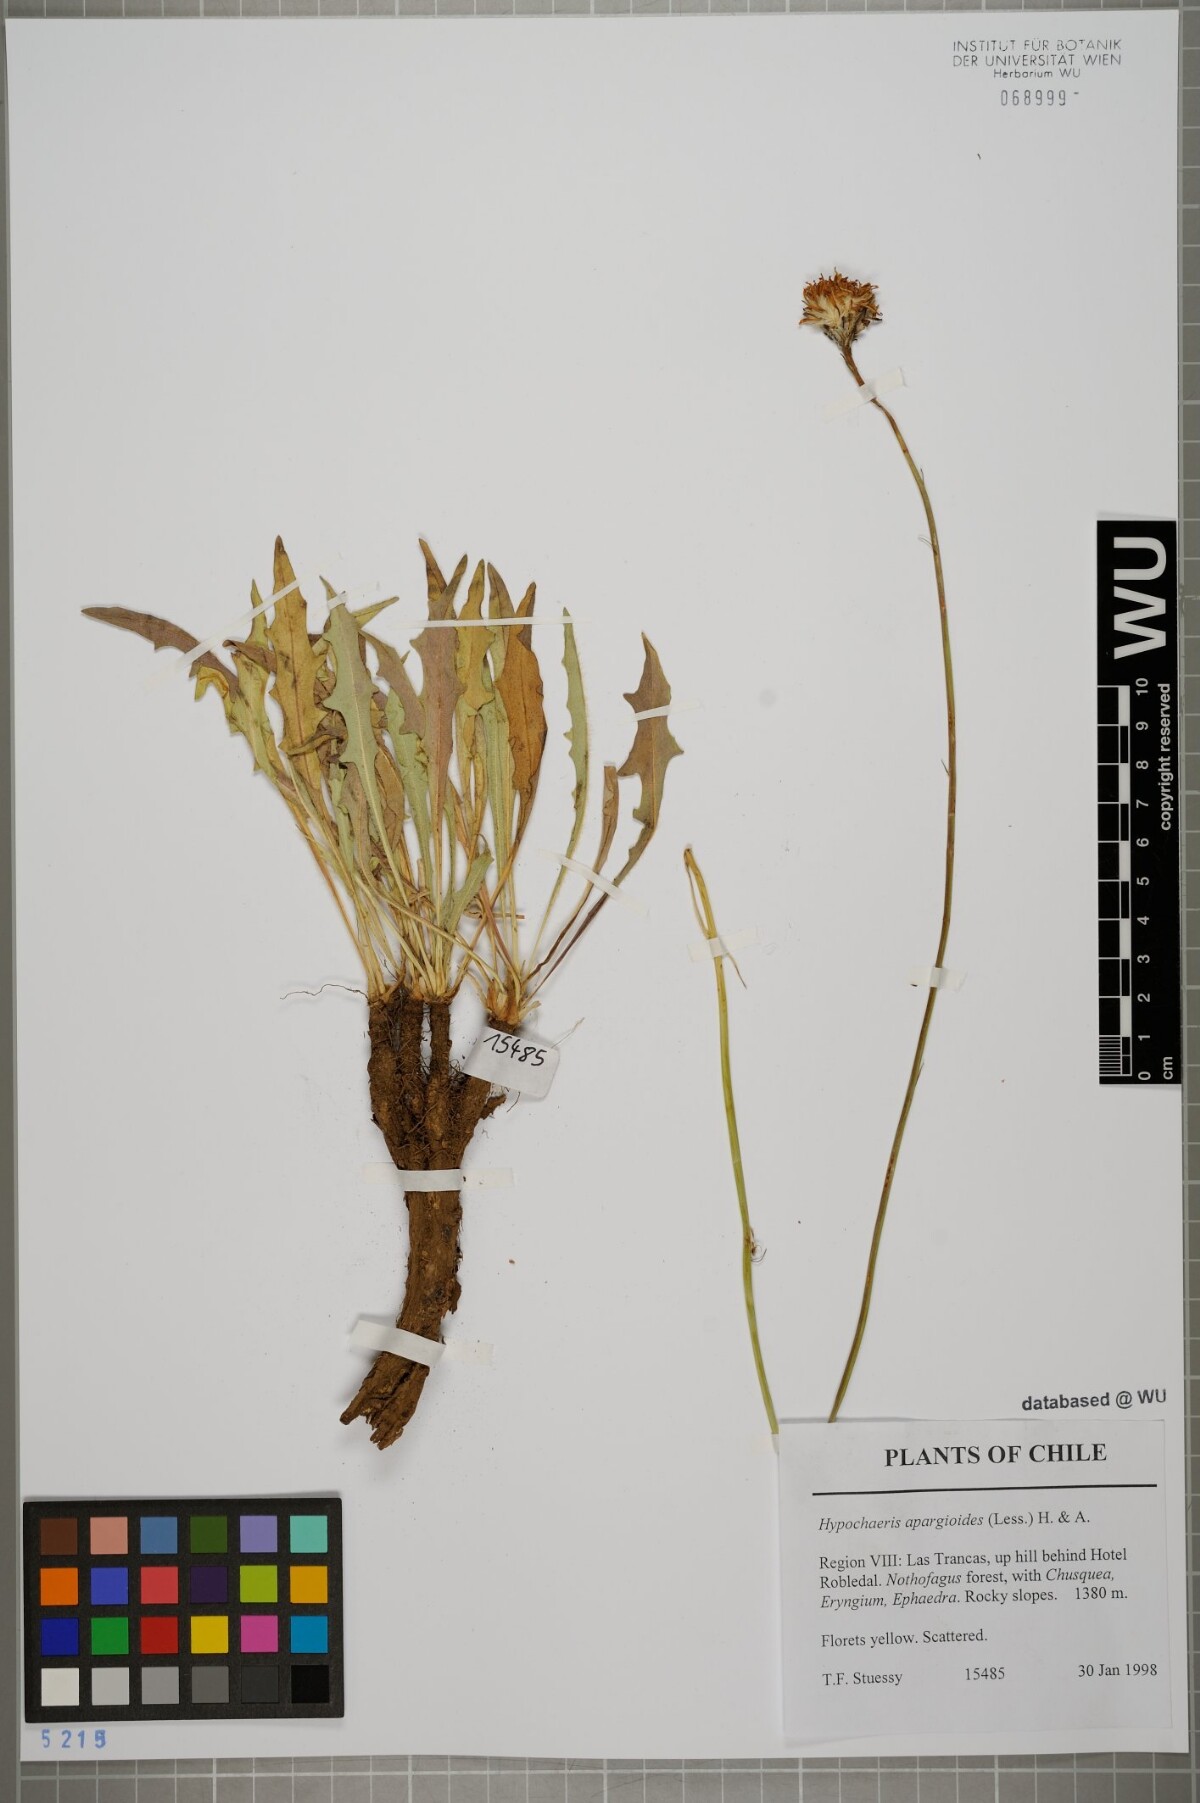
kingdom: Plantae
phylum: Tracheophyta
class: Magnoliopsida
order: Asterales
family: Asteraceae
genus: Hypochaeris
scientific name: Hypochaeris apargioides
